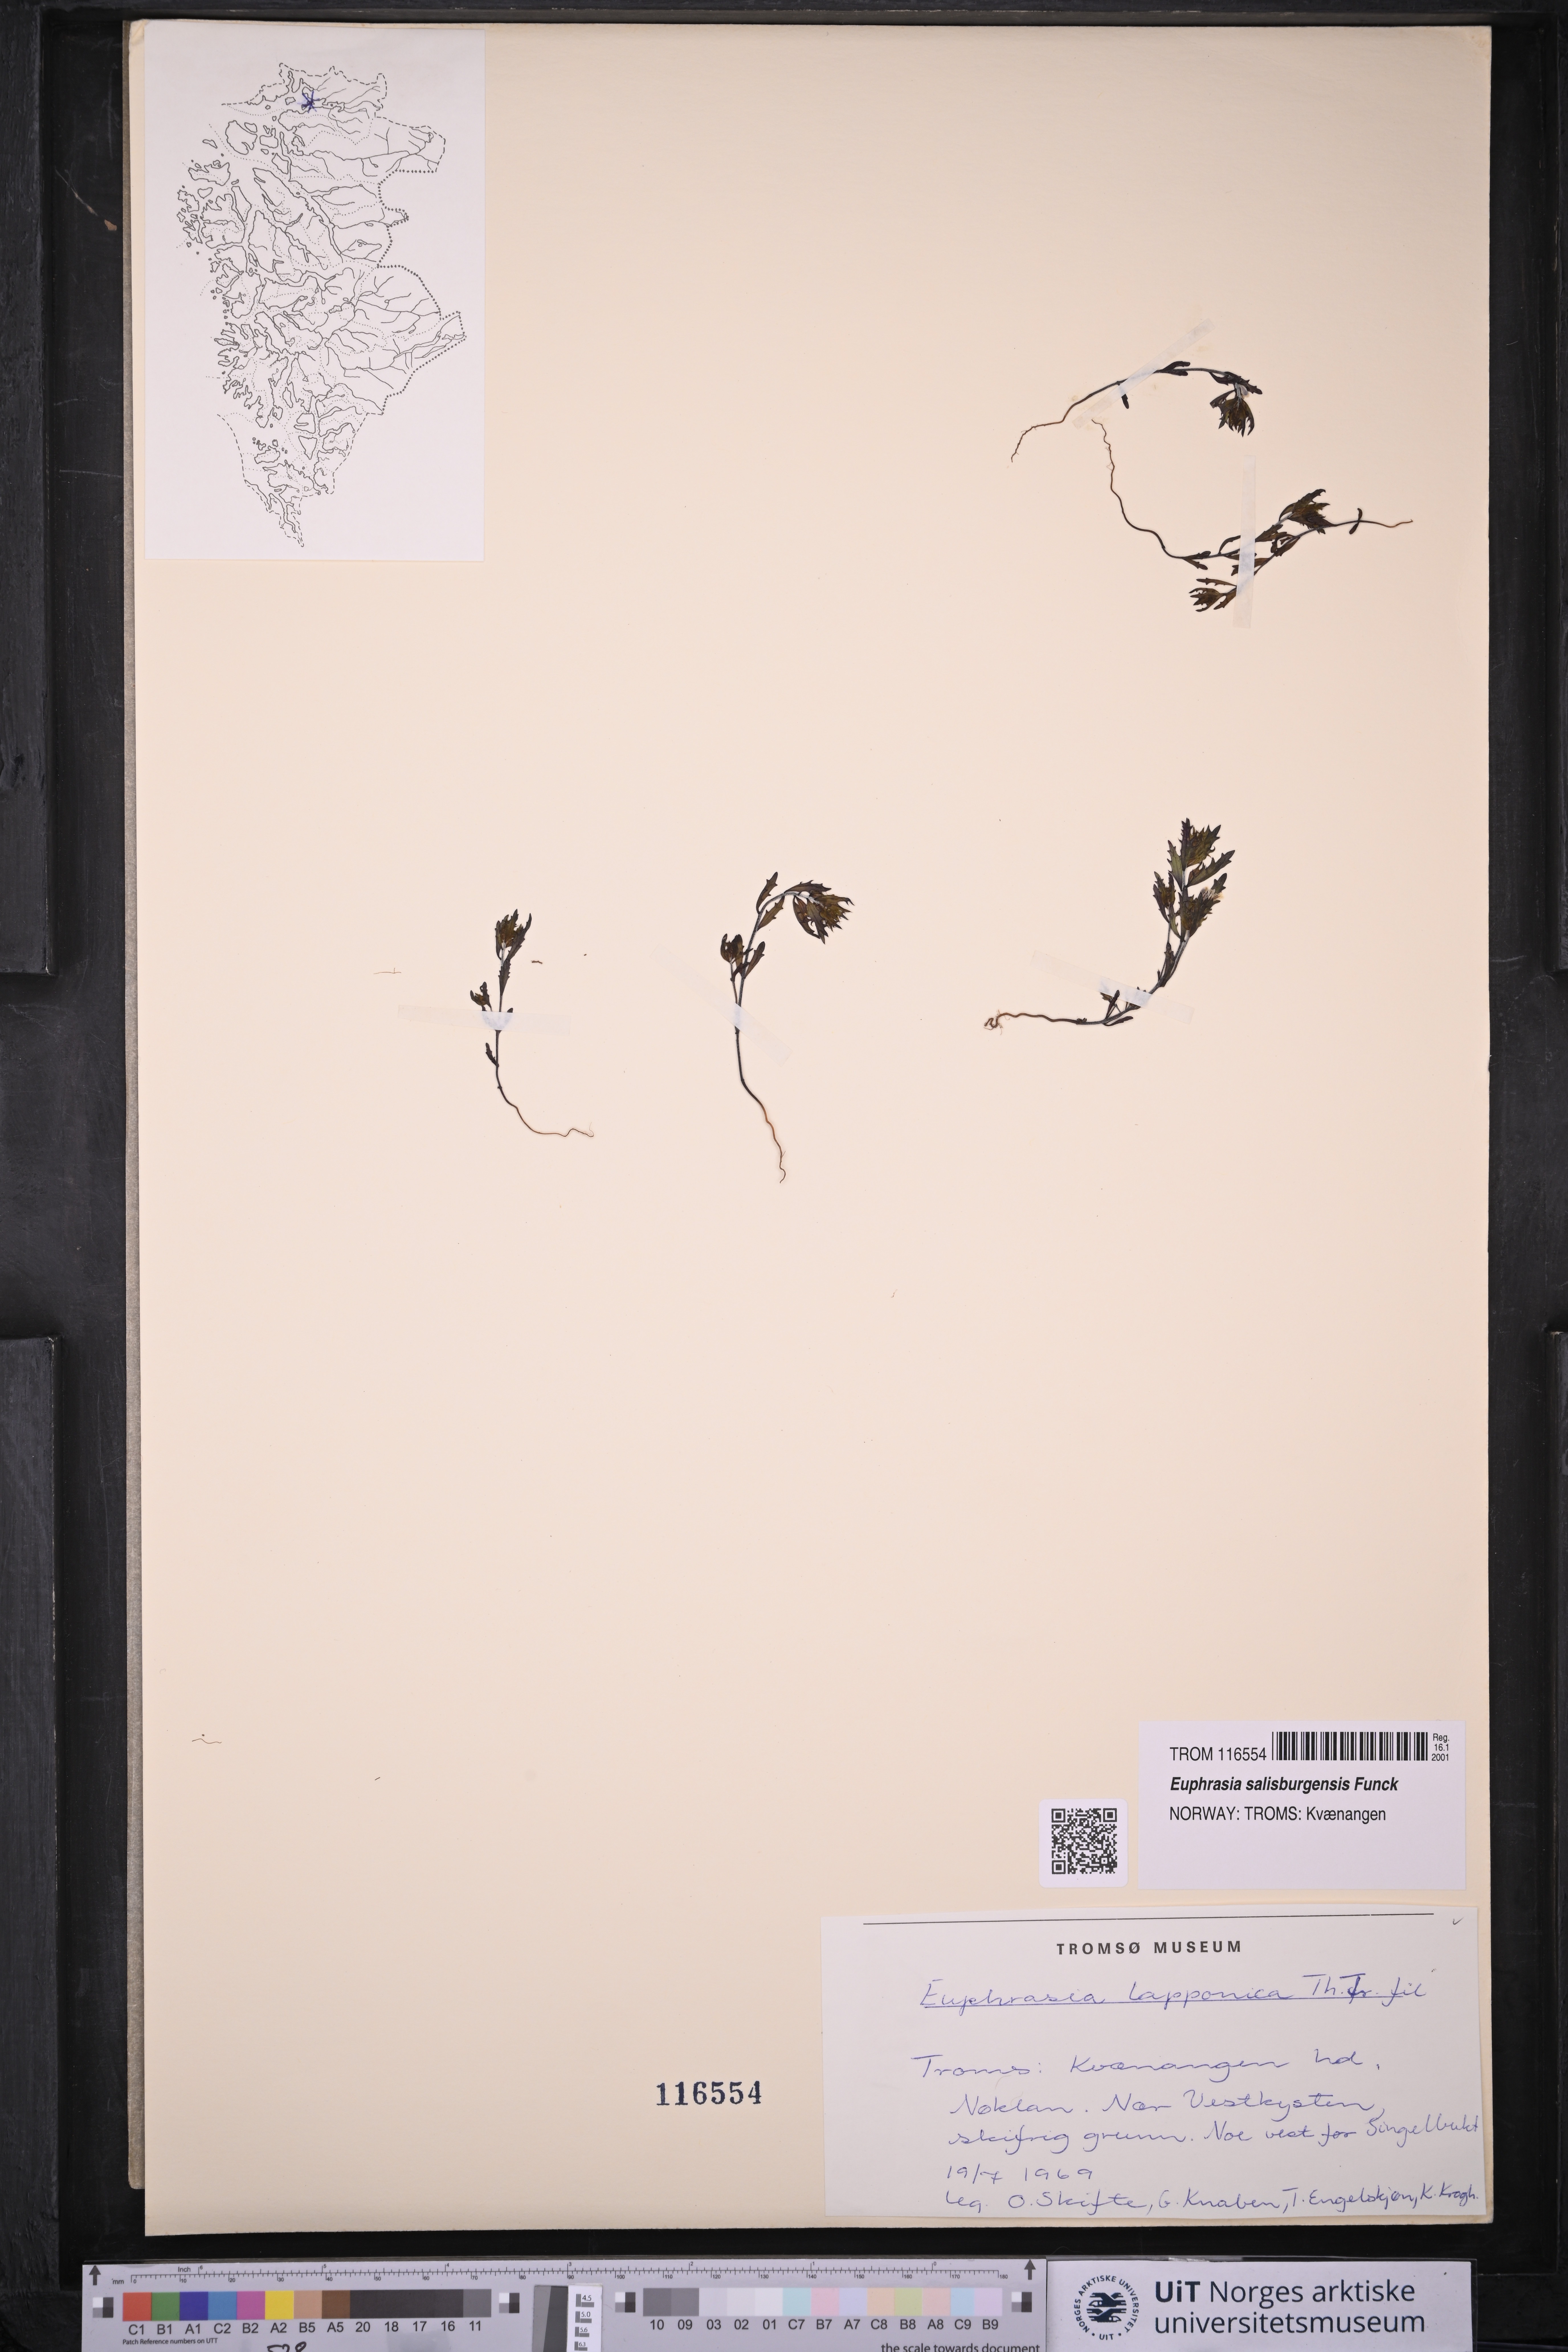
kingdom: Plantae
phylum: Tracheophyta
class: Magnoliopsida
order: Lamiales
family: Orobanchaceae
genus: Euphrasia
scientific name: Euphrasia salisburgensis
